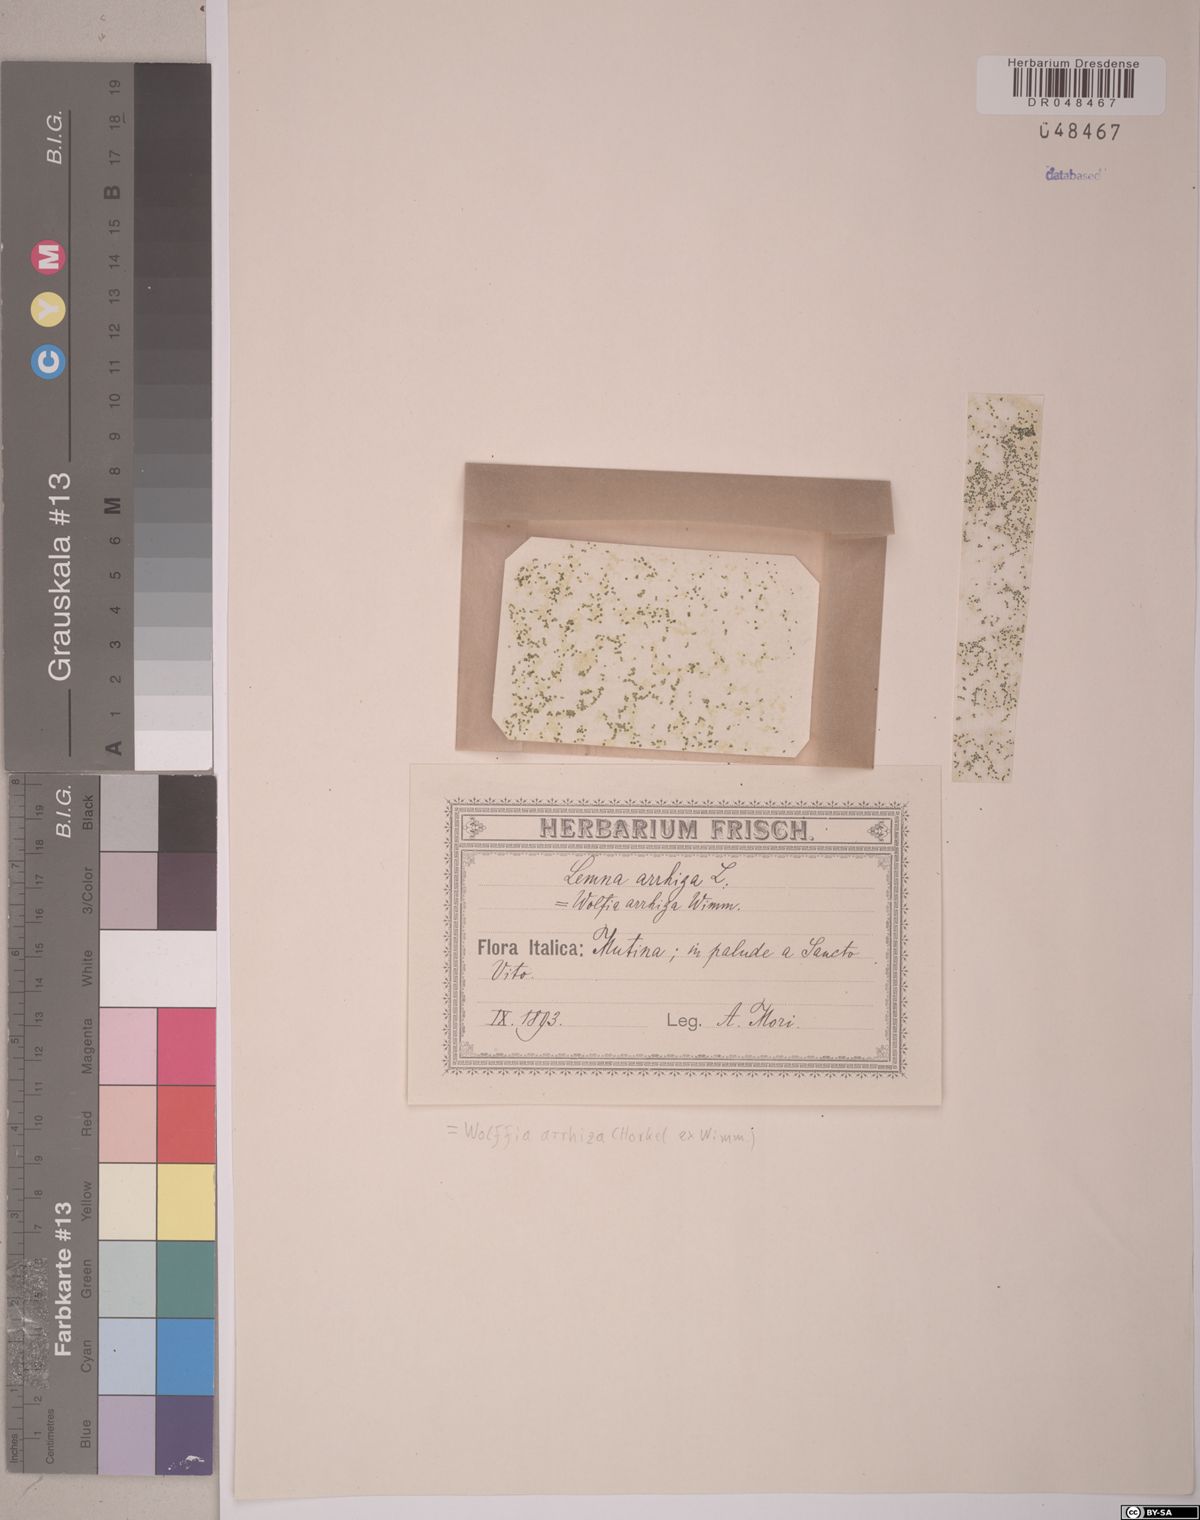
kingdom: Plantae
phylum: Tracheophyta
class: Liliopsida
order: Alismatales
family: Araceae
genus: Wolffia
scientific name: Wolffia arrhiza
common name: Rootless duckweed
